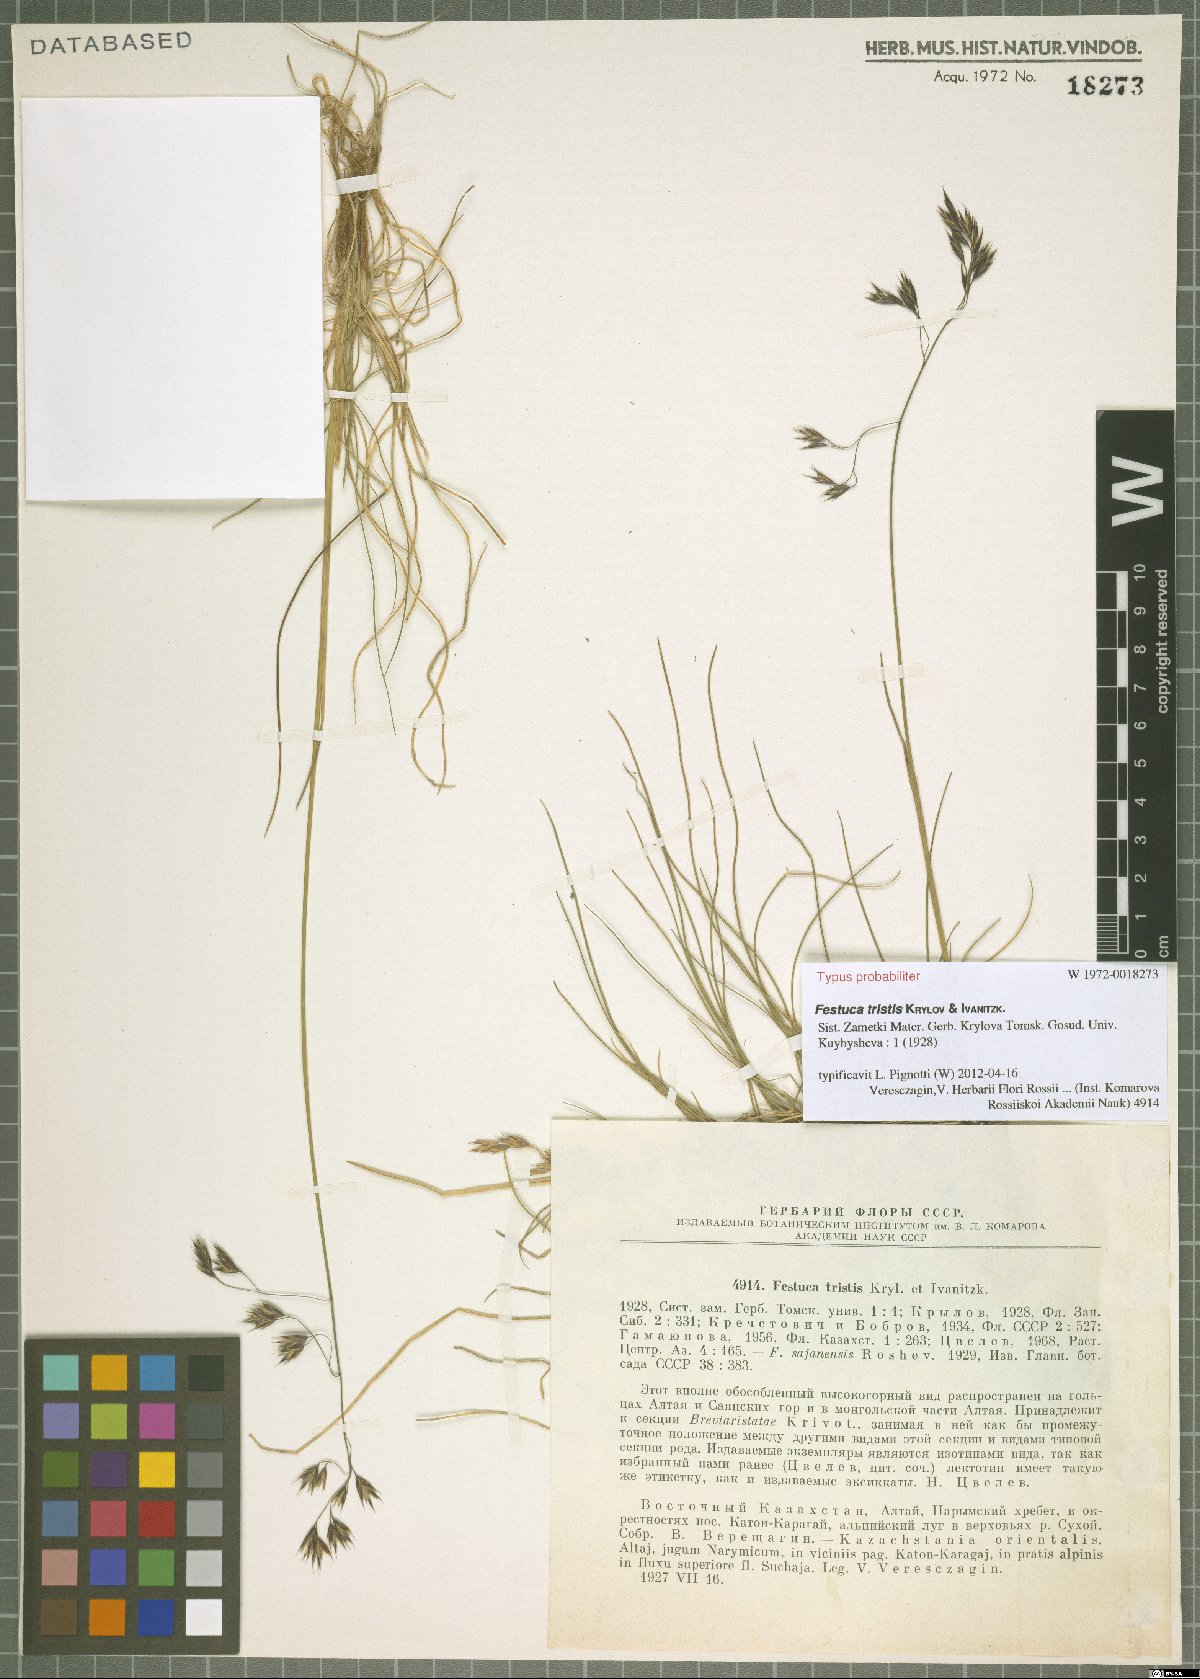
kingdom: Plantae
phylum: Tracheophyta
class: Liliopsida
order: Poales
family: Poaceae
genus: Festuca
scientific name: Festuca tristis
